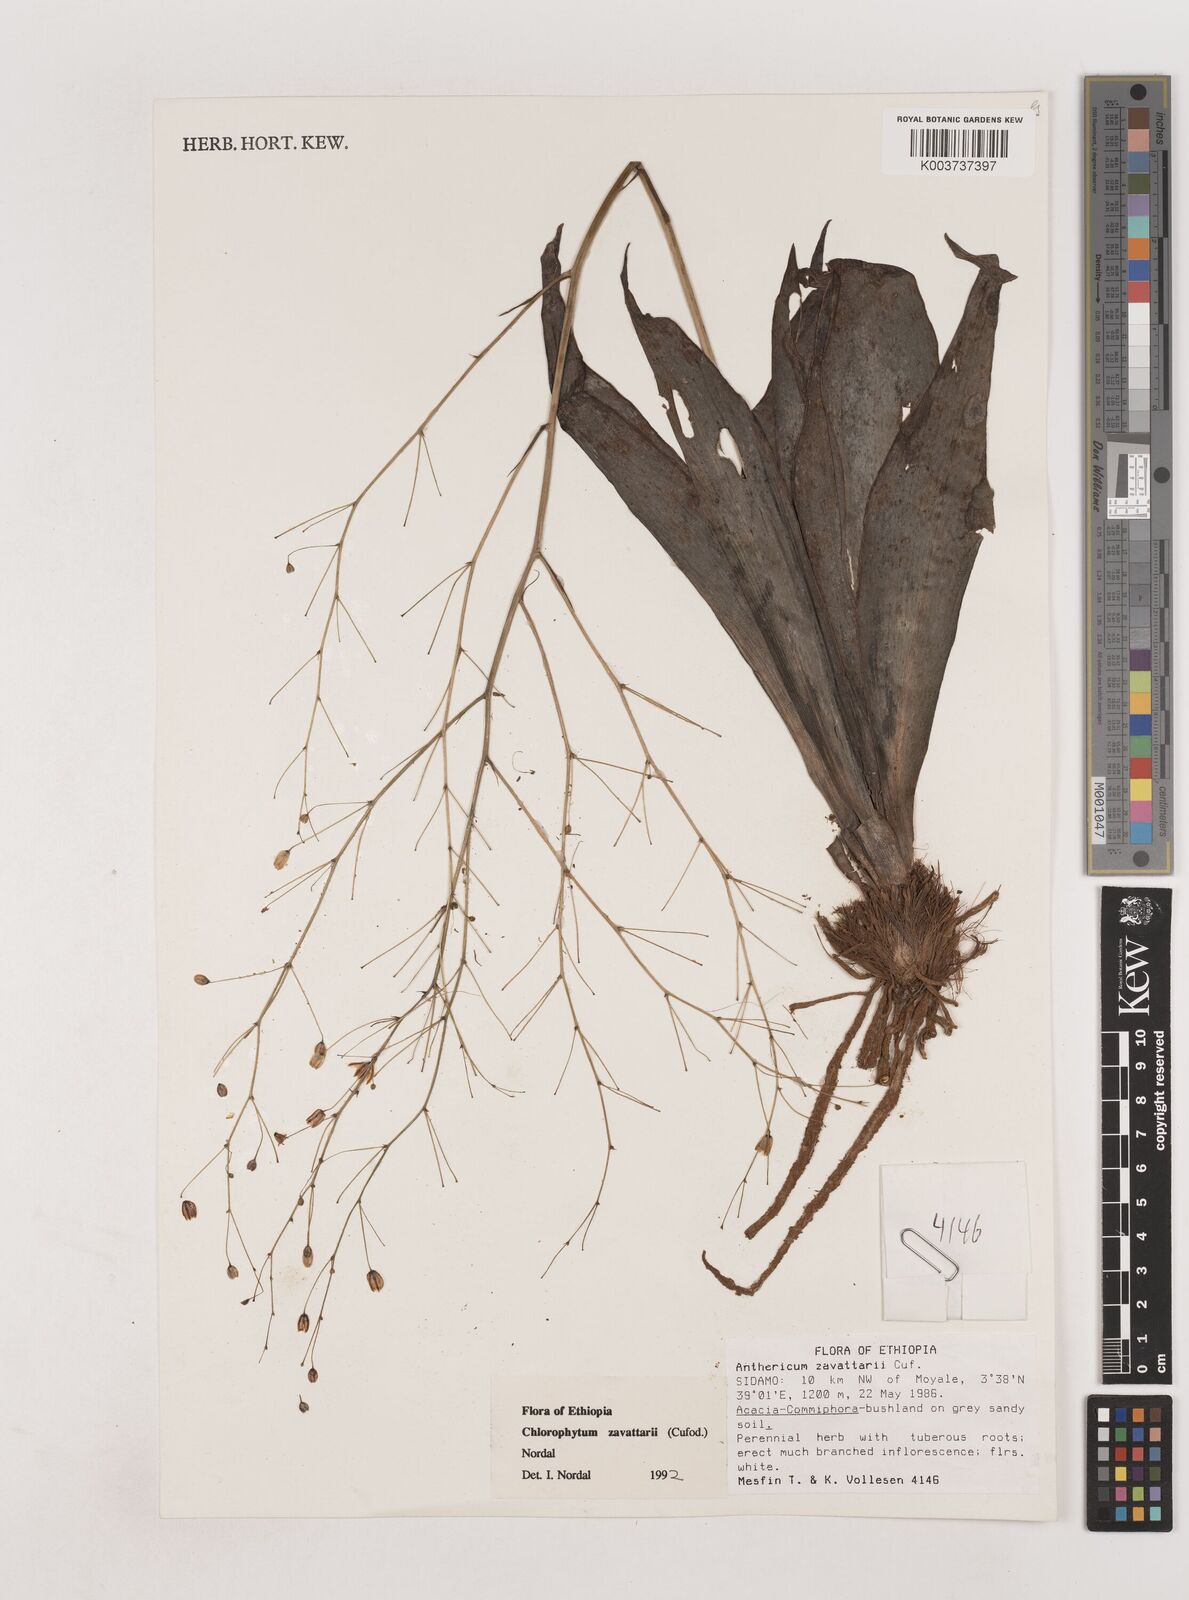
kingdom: Plantae
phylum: Tracheophyta
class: Liliopsida
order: Asparagales
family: Asparagaceae
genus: Chlorophytum
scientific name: Chlorophytum zavattarii
